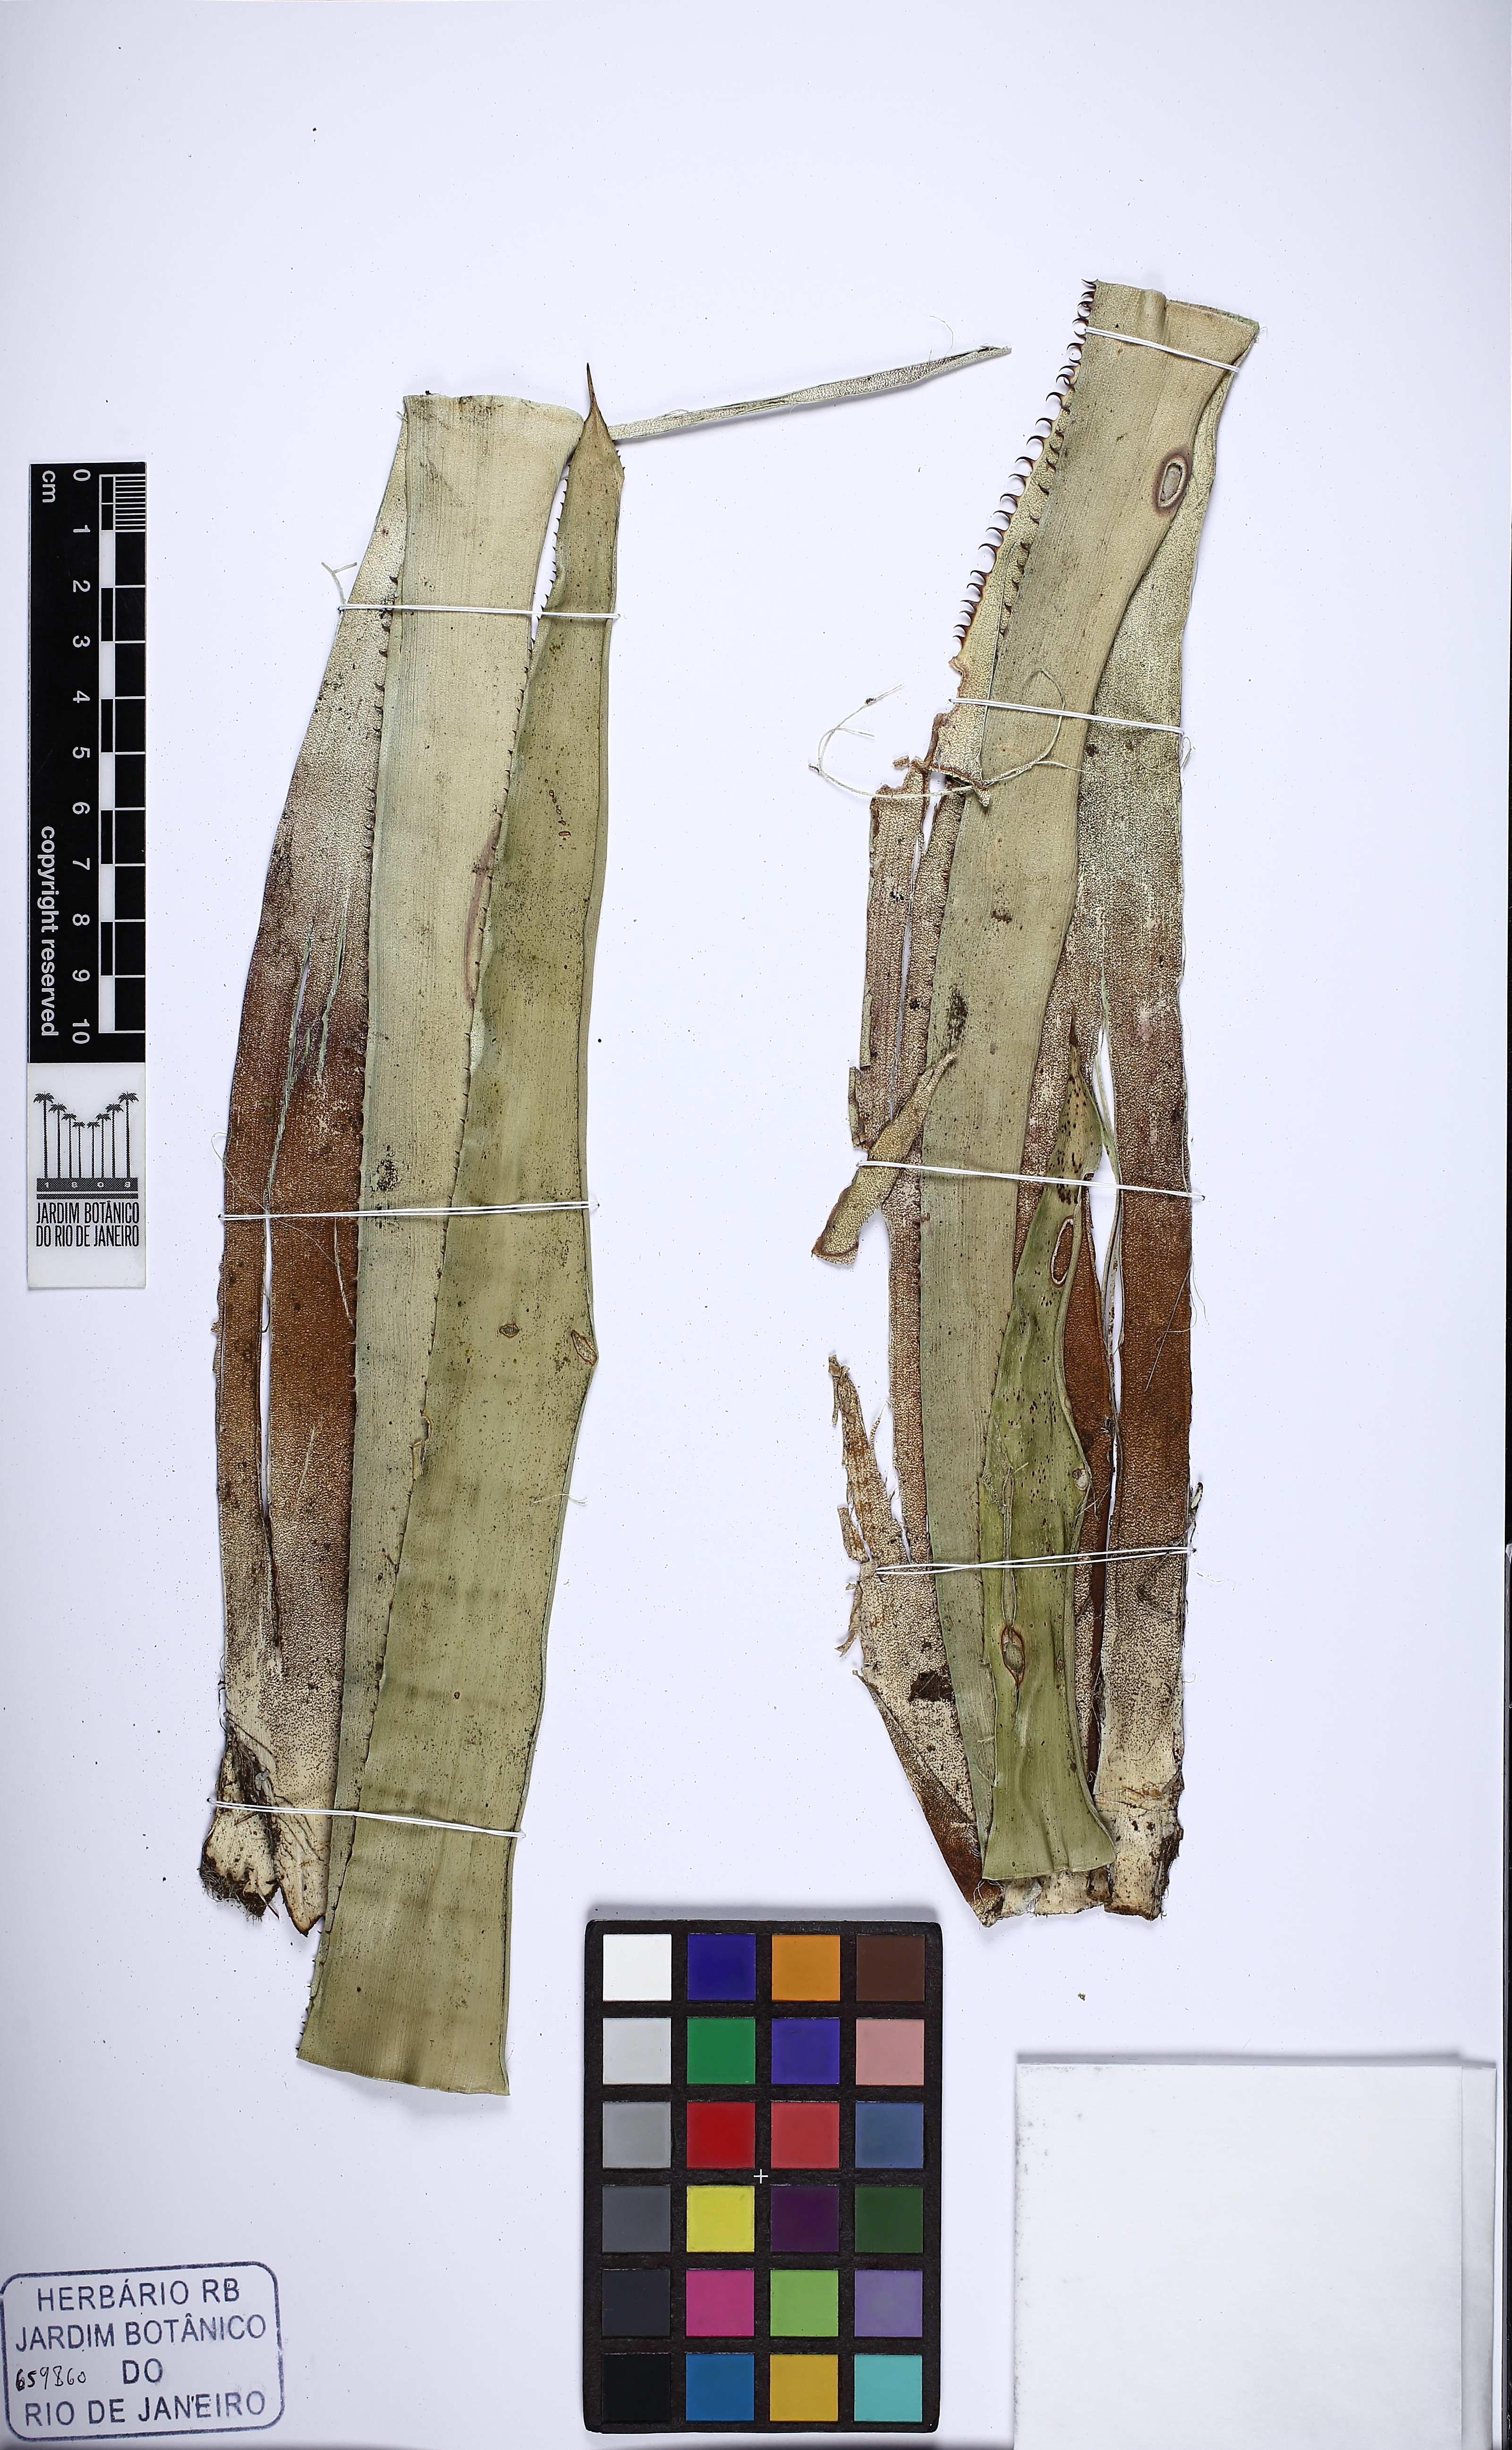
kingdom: Plantae
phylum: Tracheophyta
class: Liliopsida
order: Poales
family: Bromeliaceae
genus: Aechmea
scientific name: Aechmea ramosa
